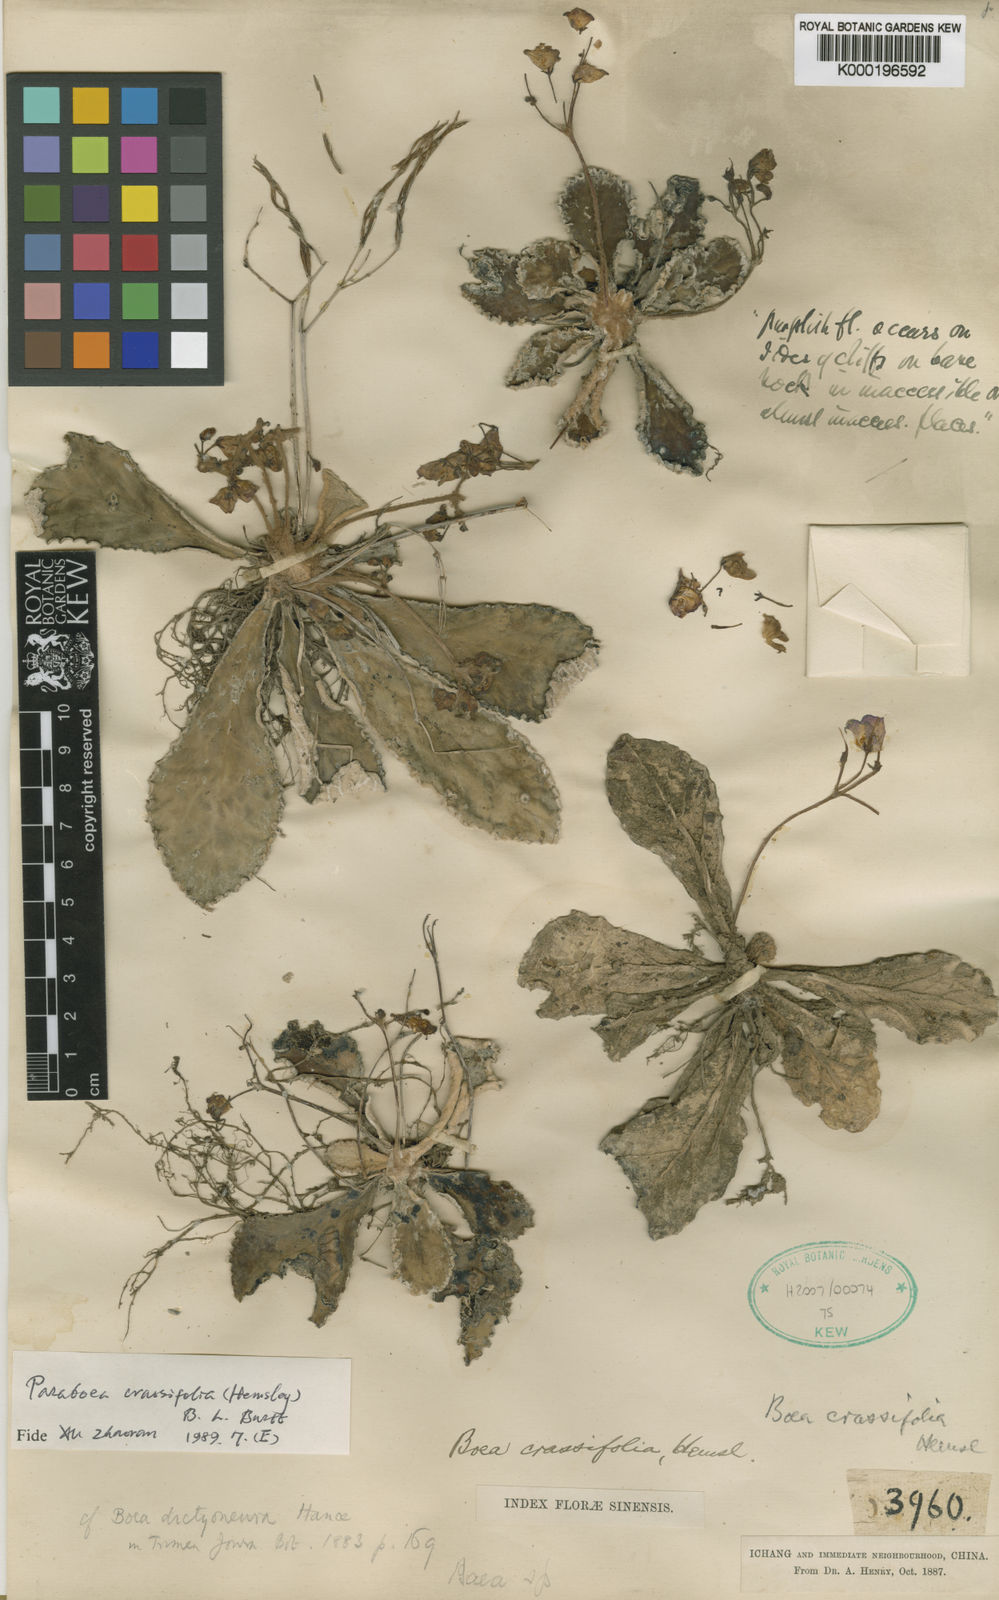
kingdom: Plantae
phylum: Tracheophyta
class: Magnoliopsida
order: Lamiales
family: Gesneriaceae
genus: Paraboea
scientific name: Paraboea crassifolia
